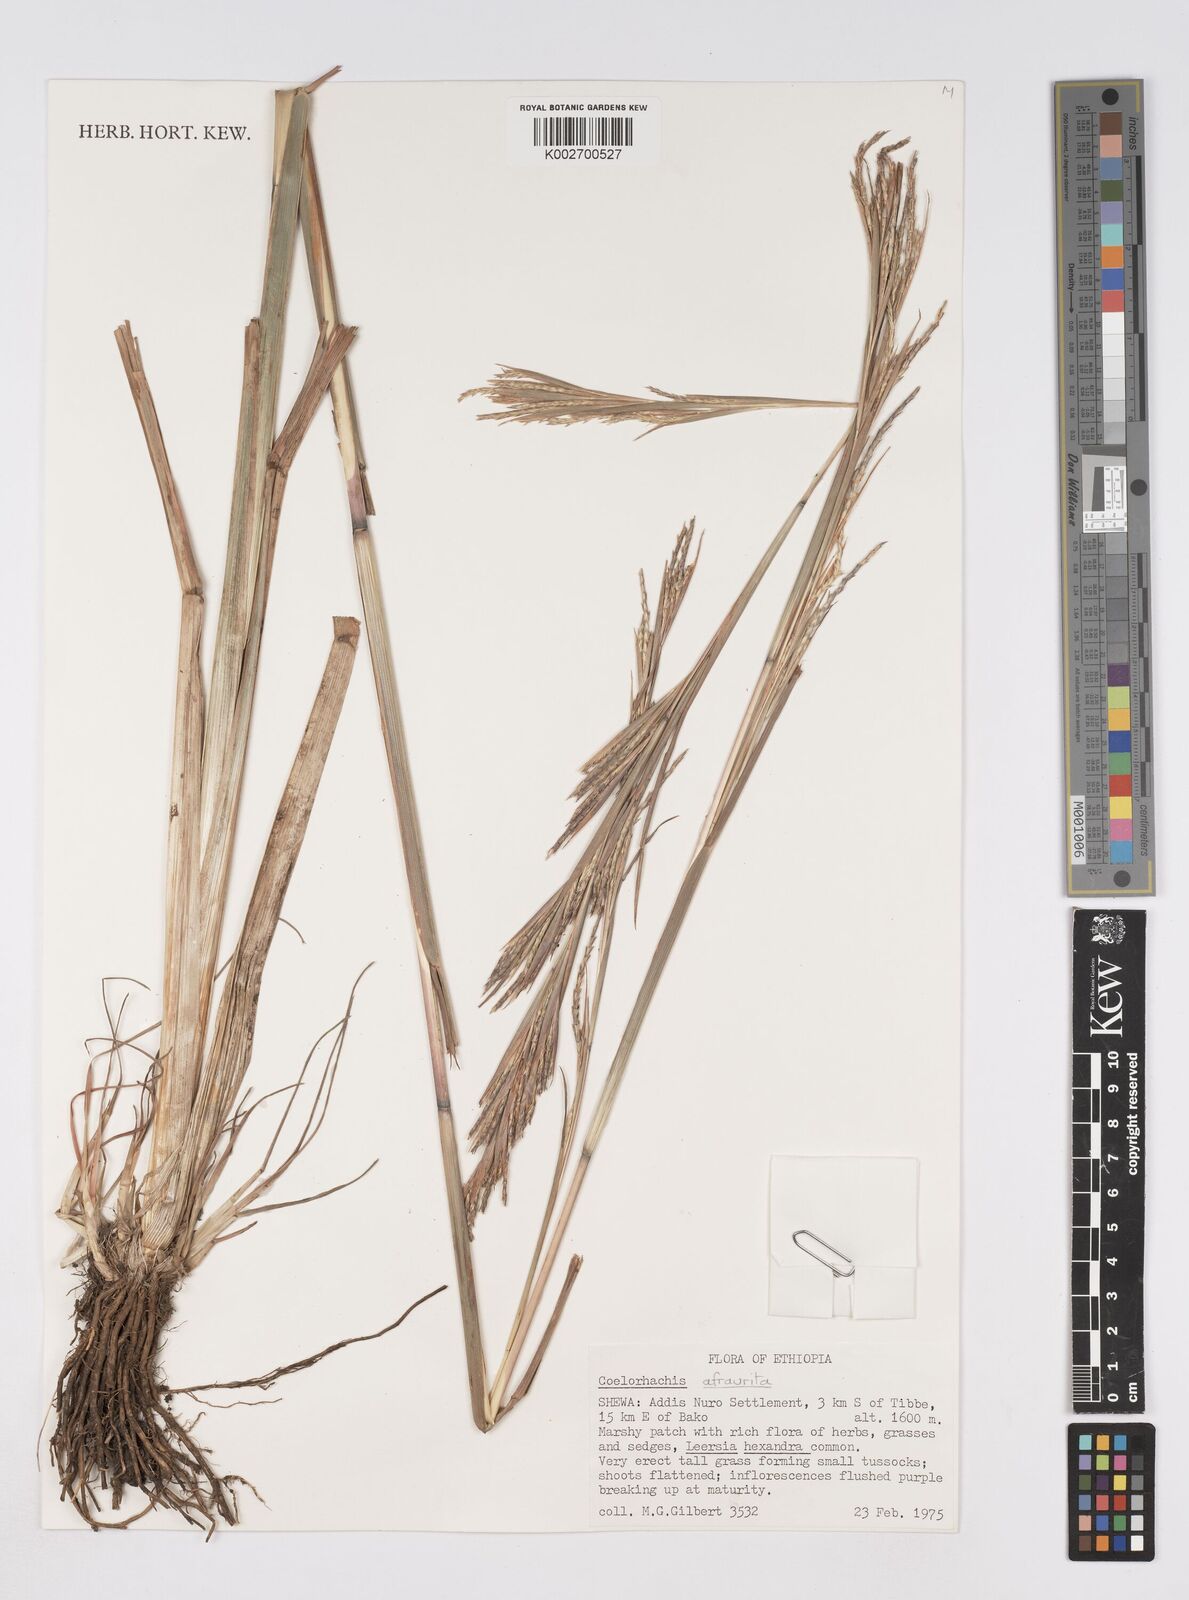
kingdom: Plantae
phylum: Tracheophyta
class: Liliopsida
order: Poales
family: Poaceae
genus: Rottboellia
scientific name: Rottboellia afraurita
